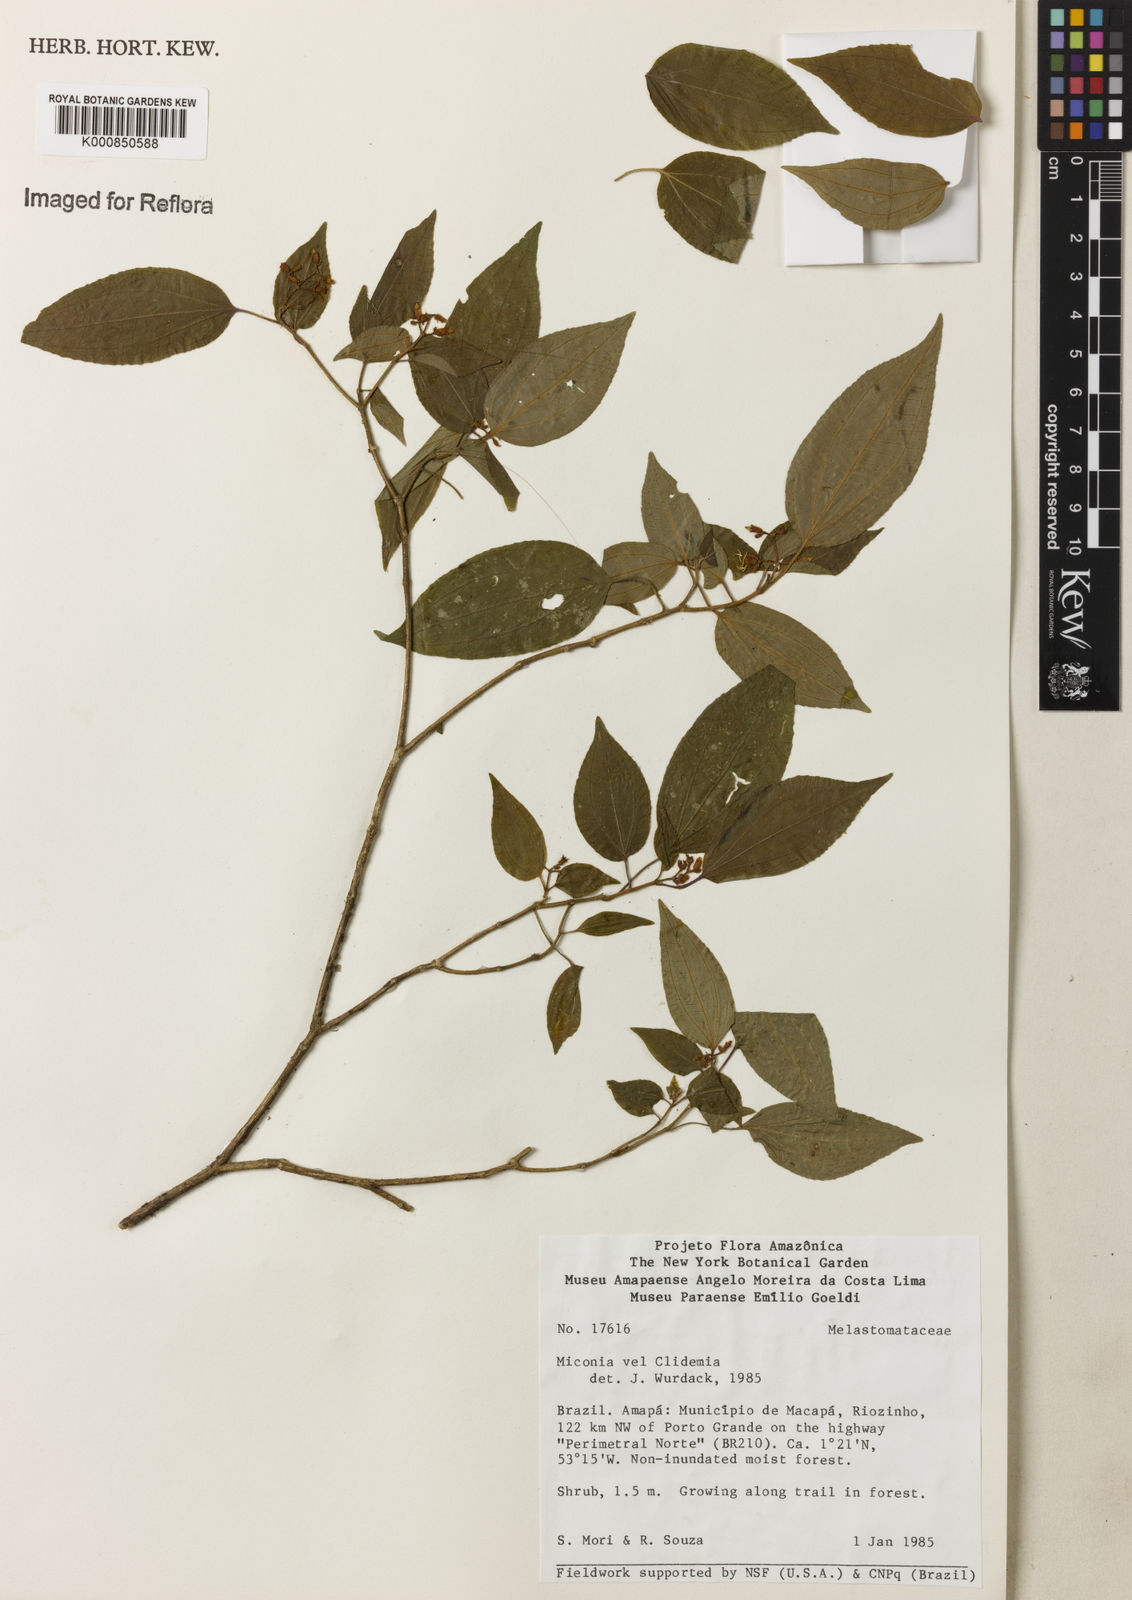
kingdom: Plantae
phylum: Tracheophyta
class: Magnoliopsida
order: Myrtales
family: Melastomataceae
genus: Miconia
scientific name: Miconia
